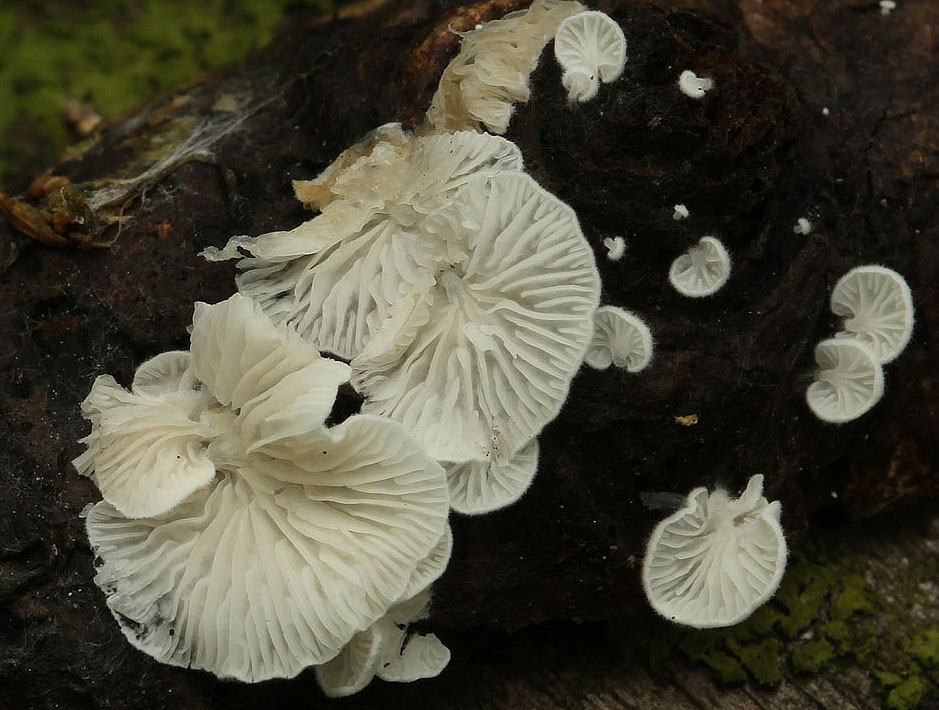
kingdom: Fungi
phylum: Basidiomycota
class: Agaricomycetes
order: Agaricales
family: Entolomataceae
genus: Clitopilus
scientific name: Clitopilus hobsonii
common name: Miller's oysterling
